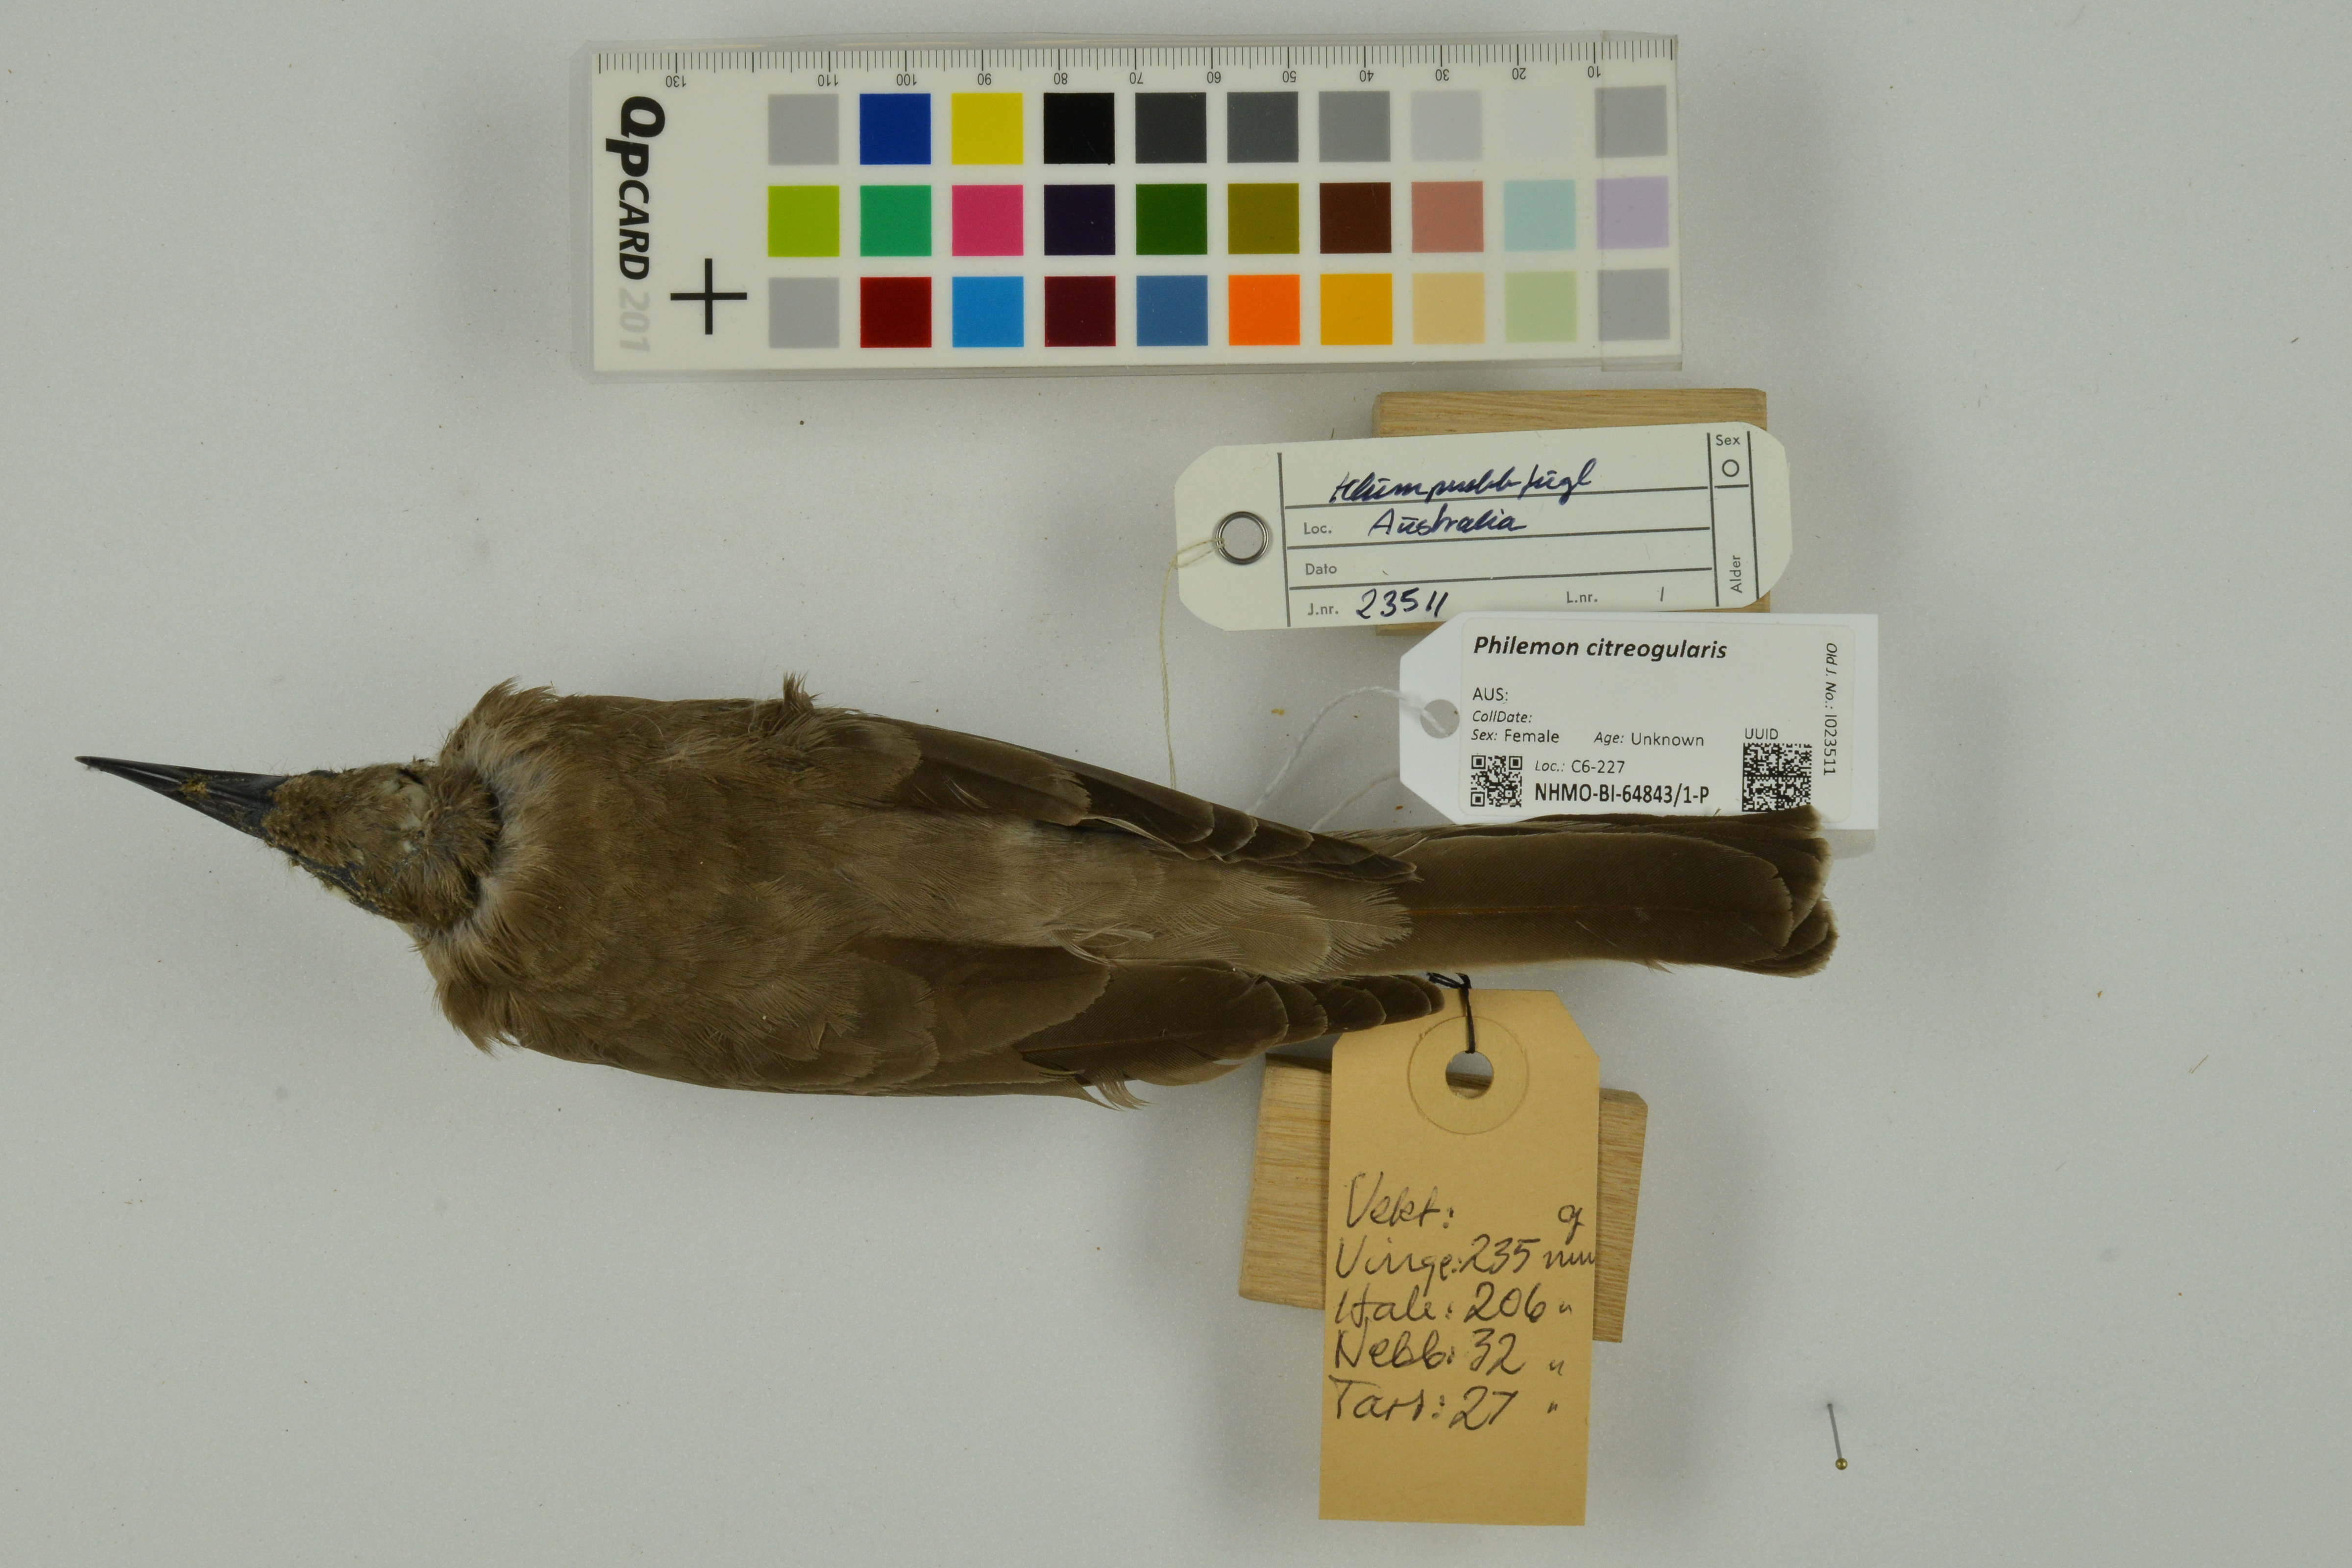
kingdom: Animalia
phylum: Chordata
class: Aves
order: Passeriformes
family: Meliphagidae
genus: Philemon
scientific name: Philemon citreogularis
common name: Little friarbird
